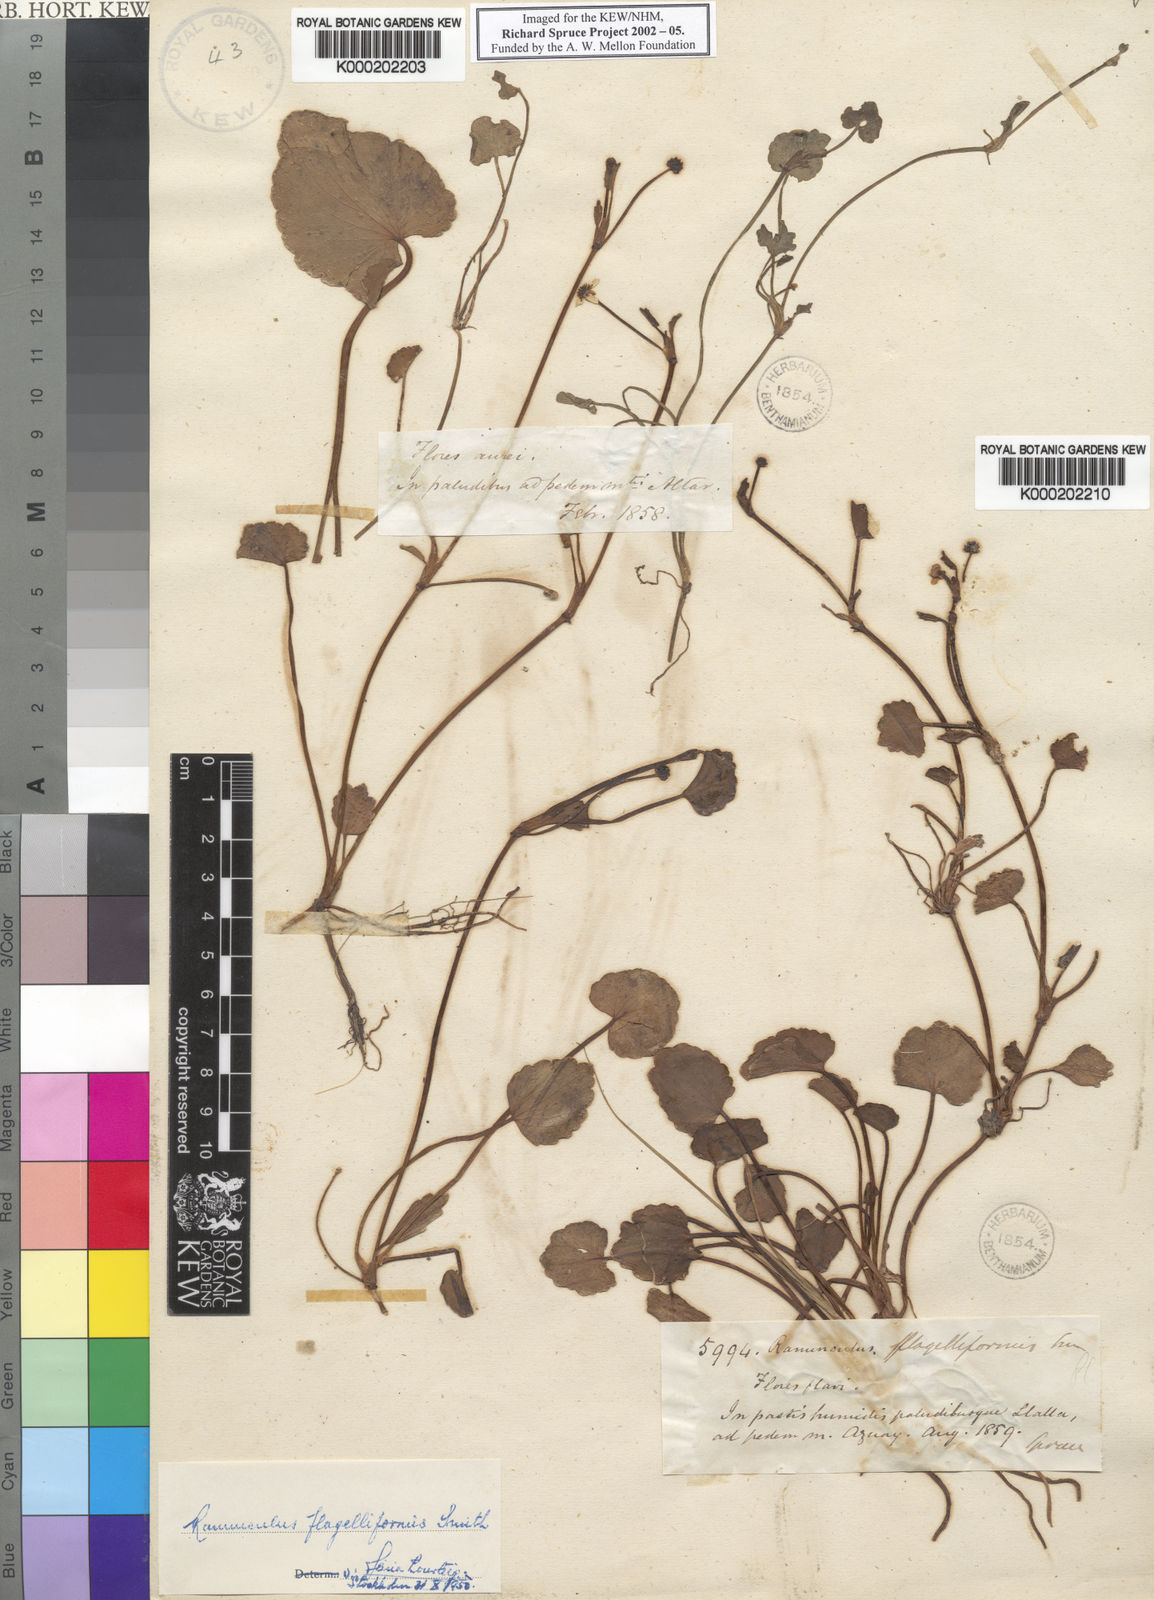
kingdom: Plantae
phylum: Tracheophyta
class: Magnoliopsida
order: Ranunculales
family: Ranunculaceae
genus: Ranunculus
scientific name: Ranunculus flagelliformis
